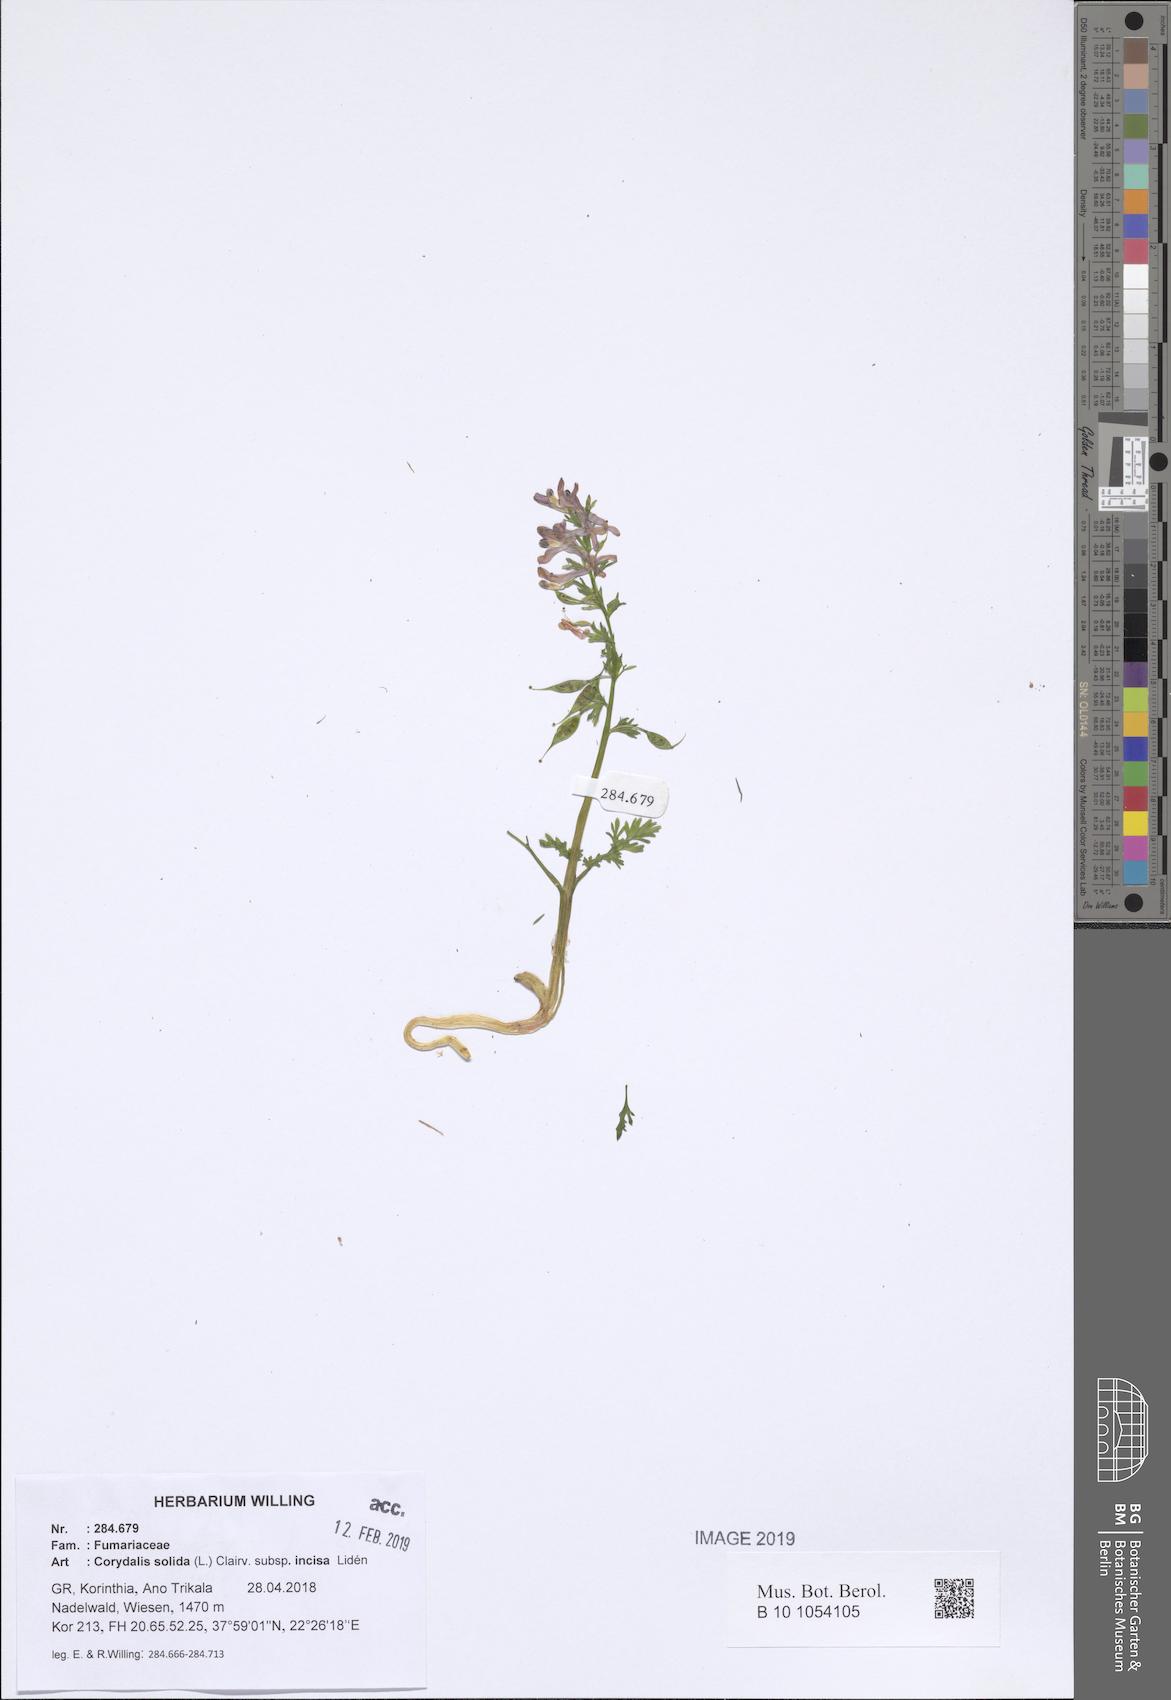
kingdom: Plantae
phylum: Tracheophyta
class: Magnoliopsida
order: Ranunculales
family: Papaveraceae
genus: Corydalis
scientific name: Corydalis solida
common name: Bird-in-a-bush
